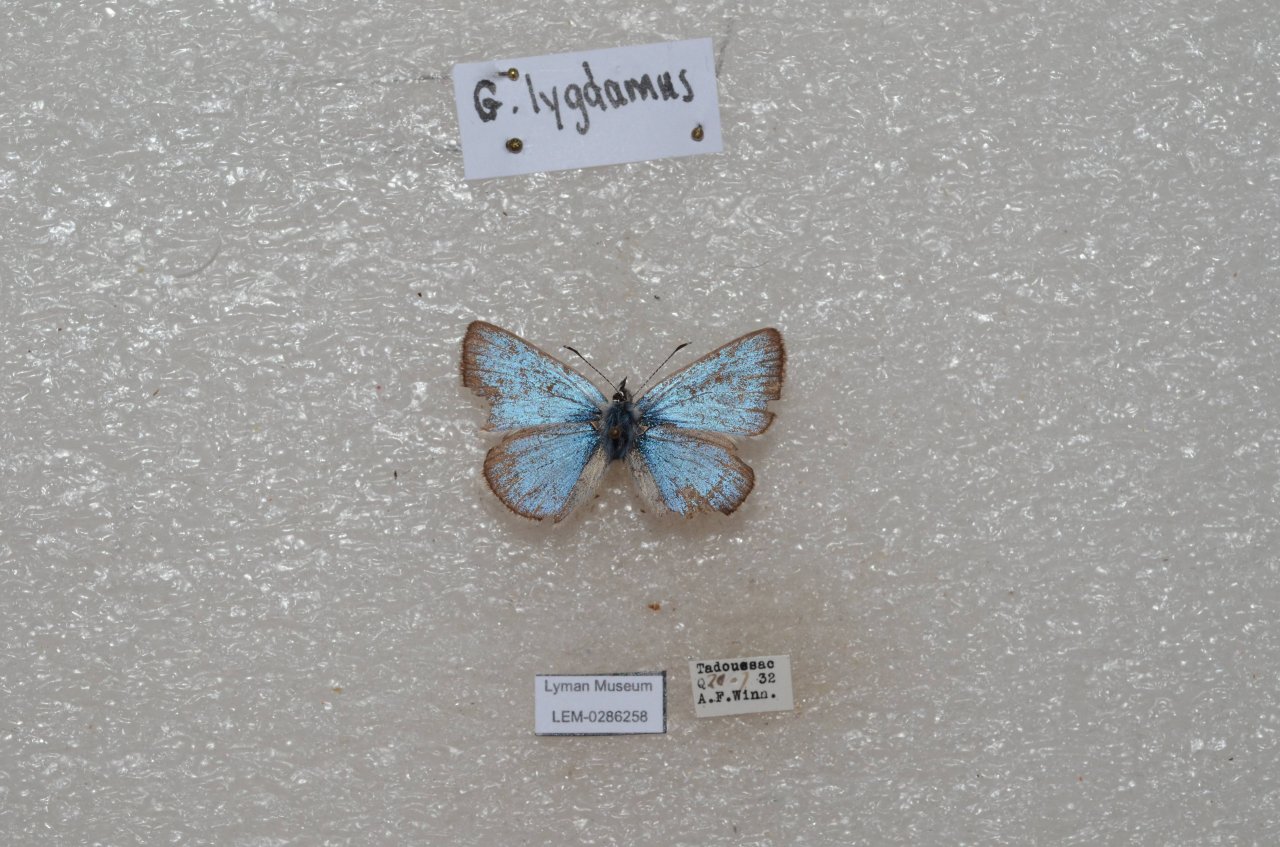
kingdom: Animalia
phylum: Arthropoda
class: Insecta
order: Lepidoptera
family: Lycaenidae
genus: Glaucopsyche
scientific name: Glaucopsyche lygdamus
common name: Silvery Blue
